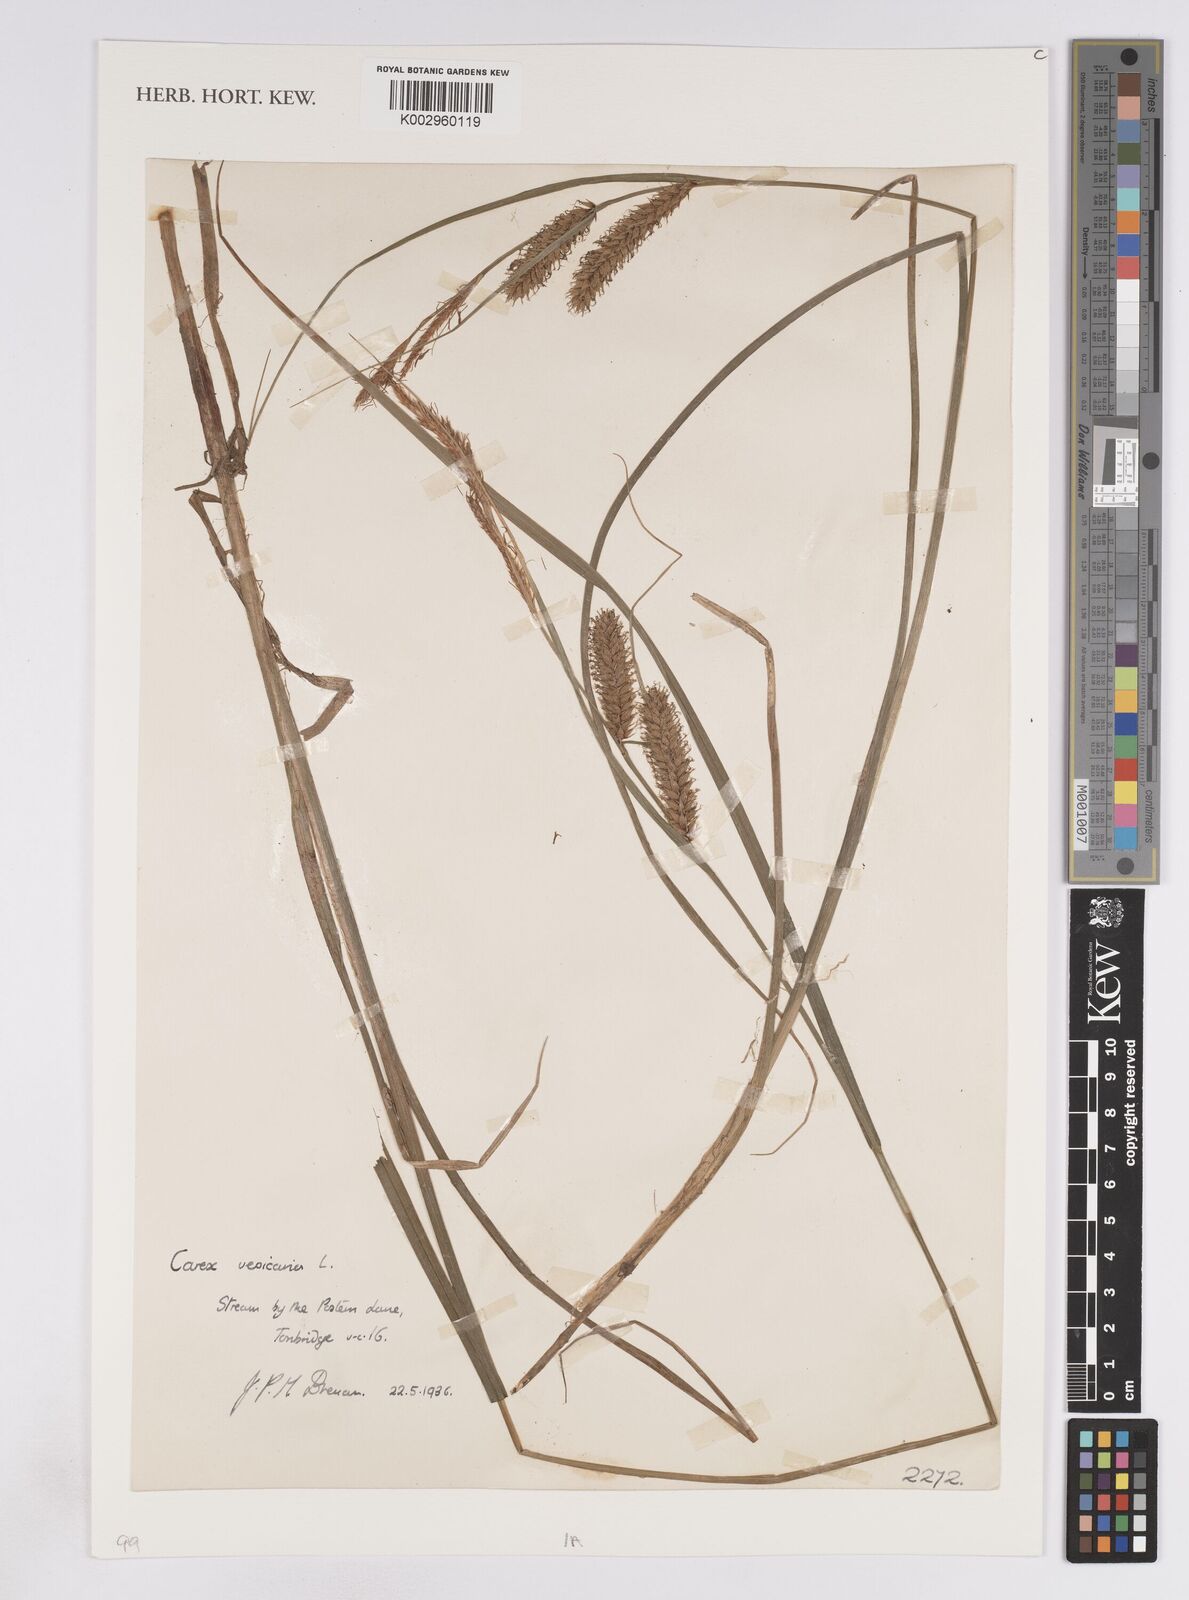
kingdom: Plantae
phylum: Tracheophyta
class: Liliopsida
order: Poales
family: Cyperaceae
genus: Carex
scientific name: Carex vesicaria
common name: Bladder-sedge
